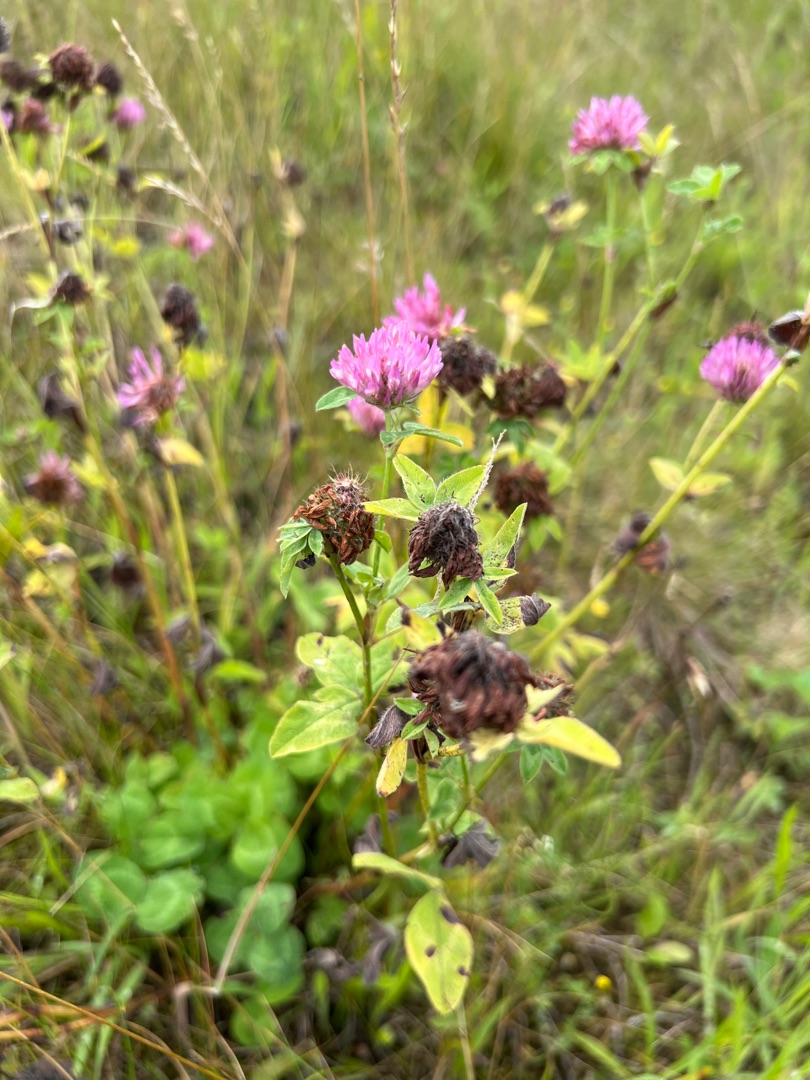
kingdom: Plantae
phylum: Tracheophyta
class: Magnoliopsida
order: Fabales
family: Fabaceae
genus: Trifolium
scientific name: Trifolium pratense
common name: Rød-kløver
